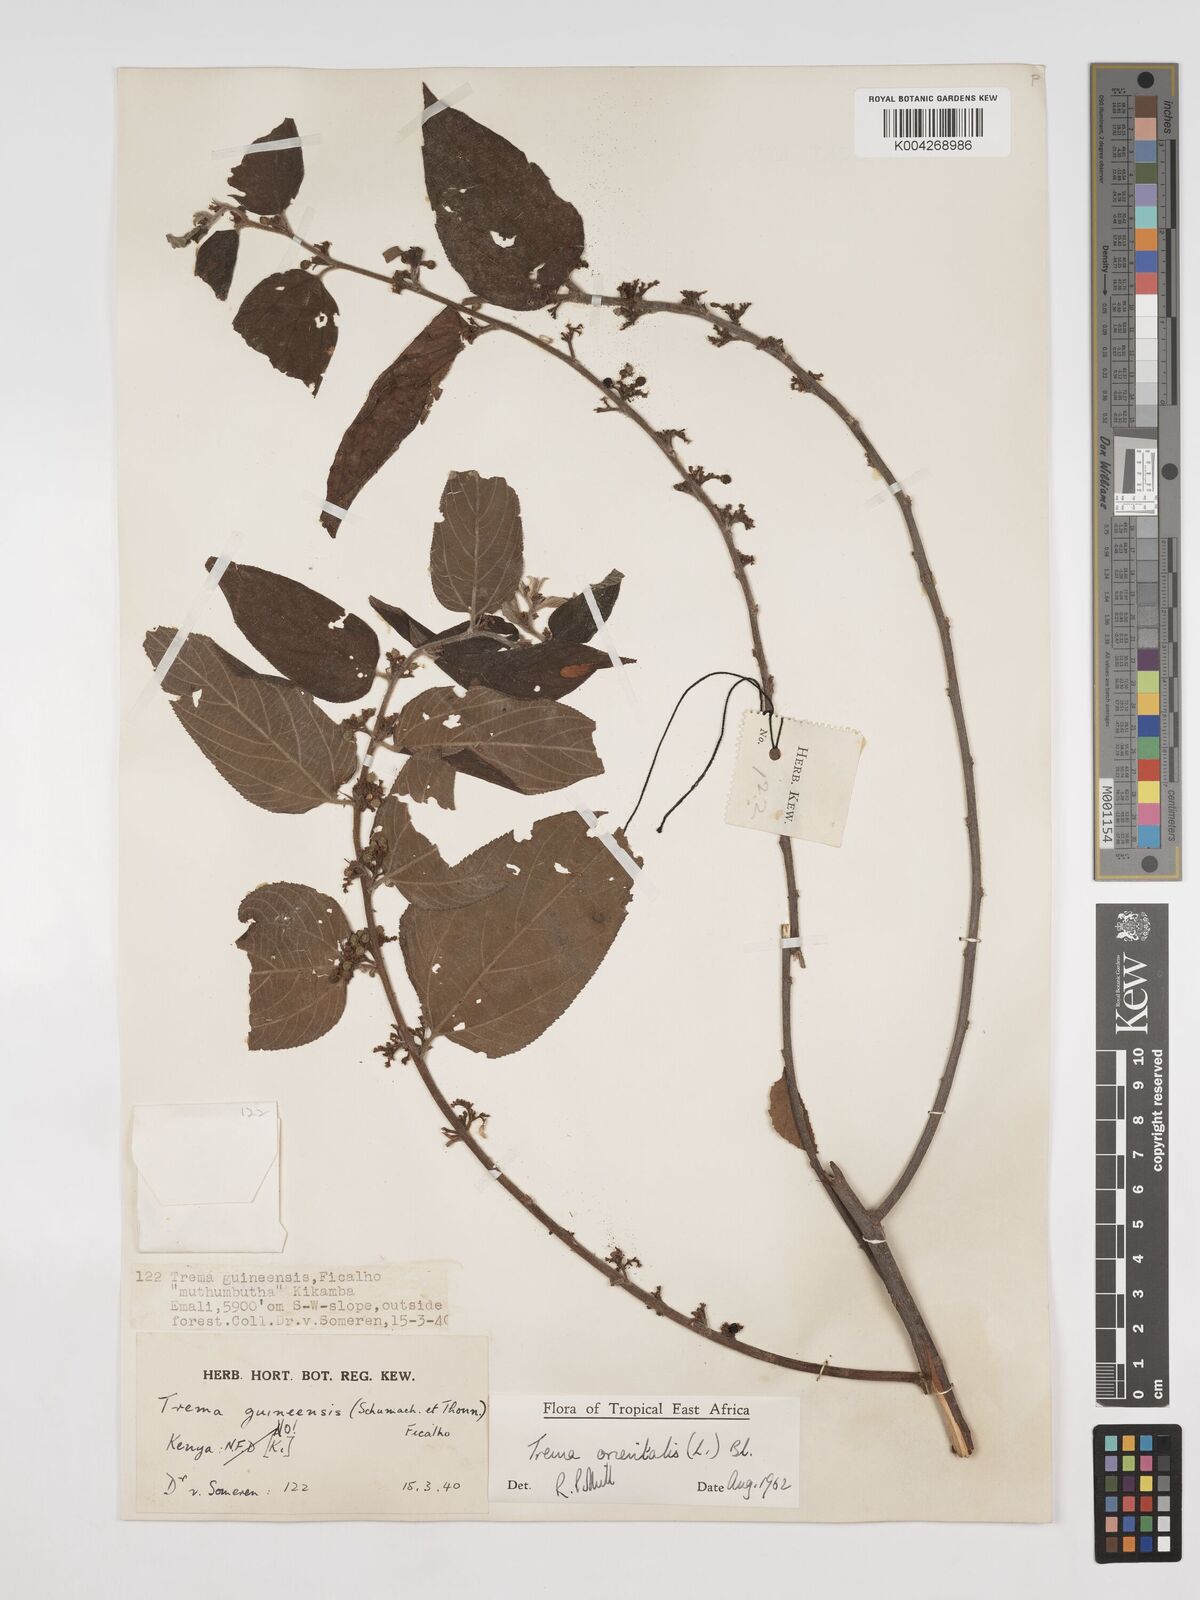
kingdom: Plantae
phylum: Tracheophyta
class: Magnoliopsida
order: Rosales
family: Cannabaceae
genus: Trema
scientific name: Trema orientale
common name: Indian charcoal tree
